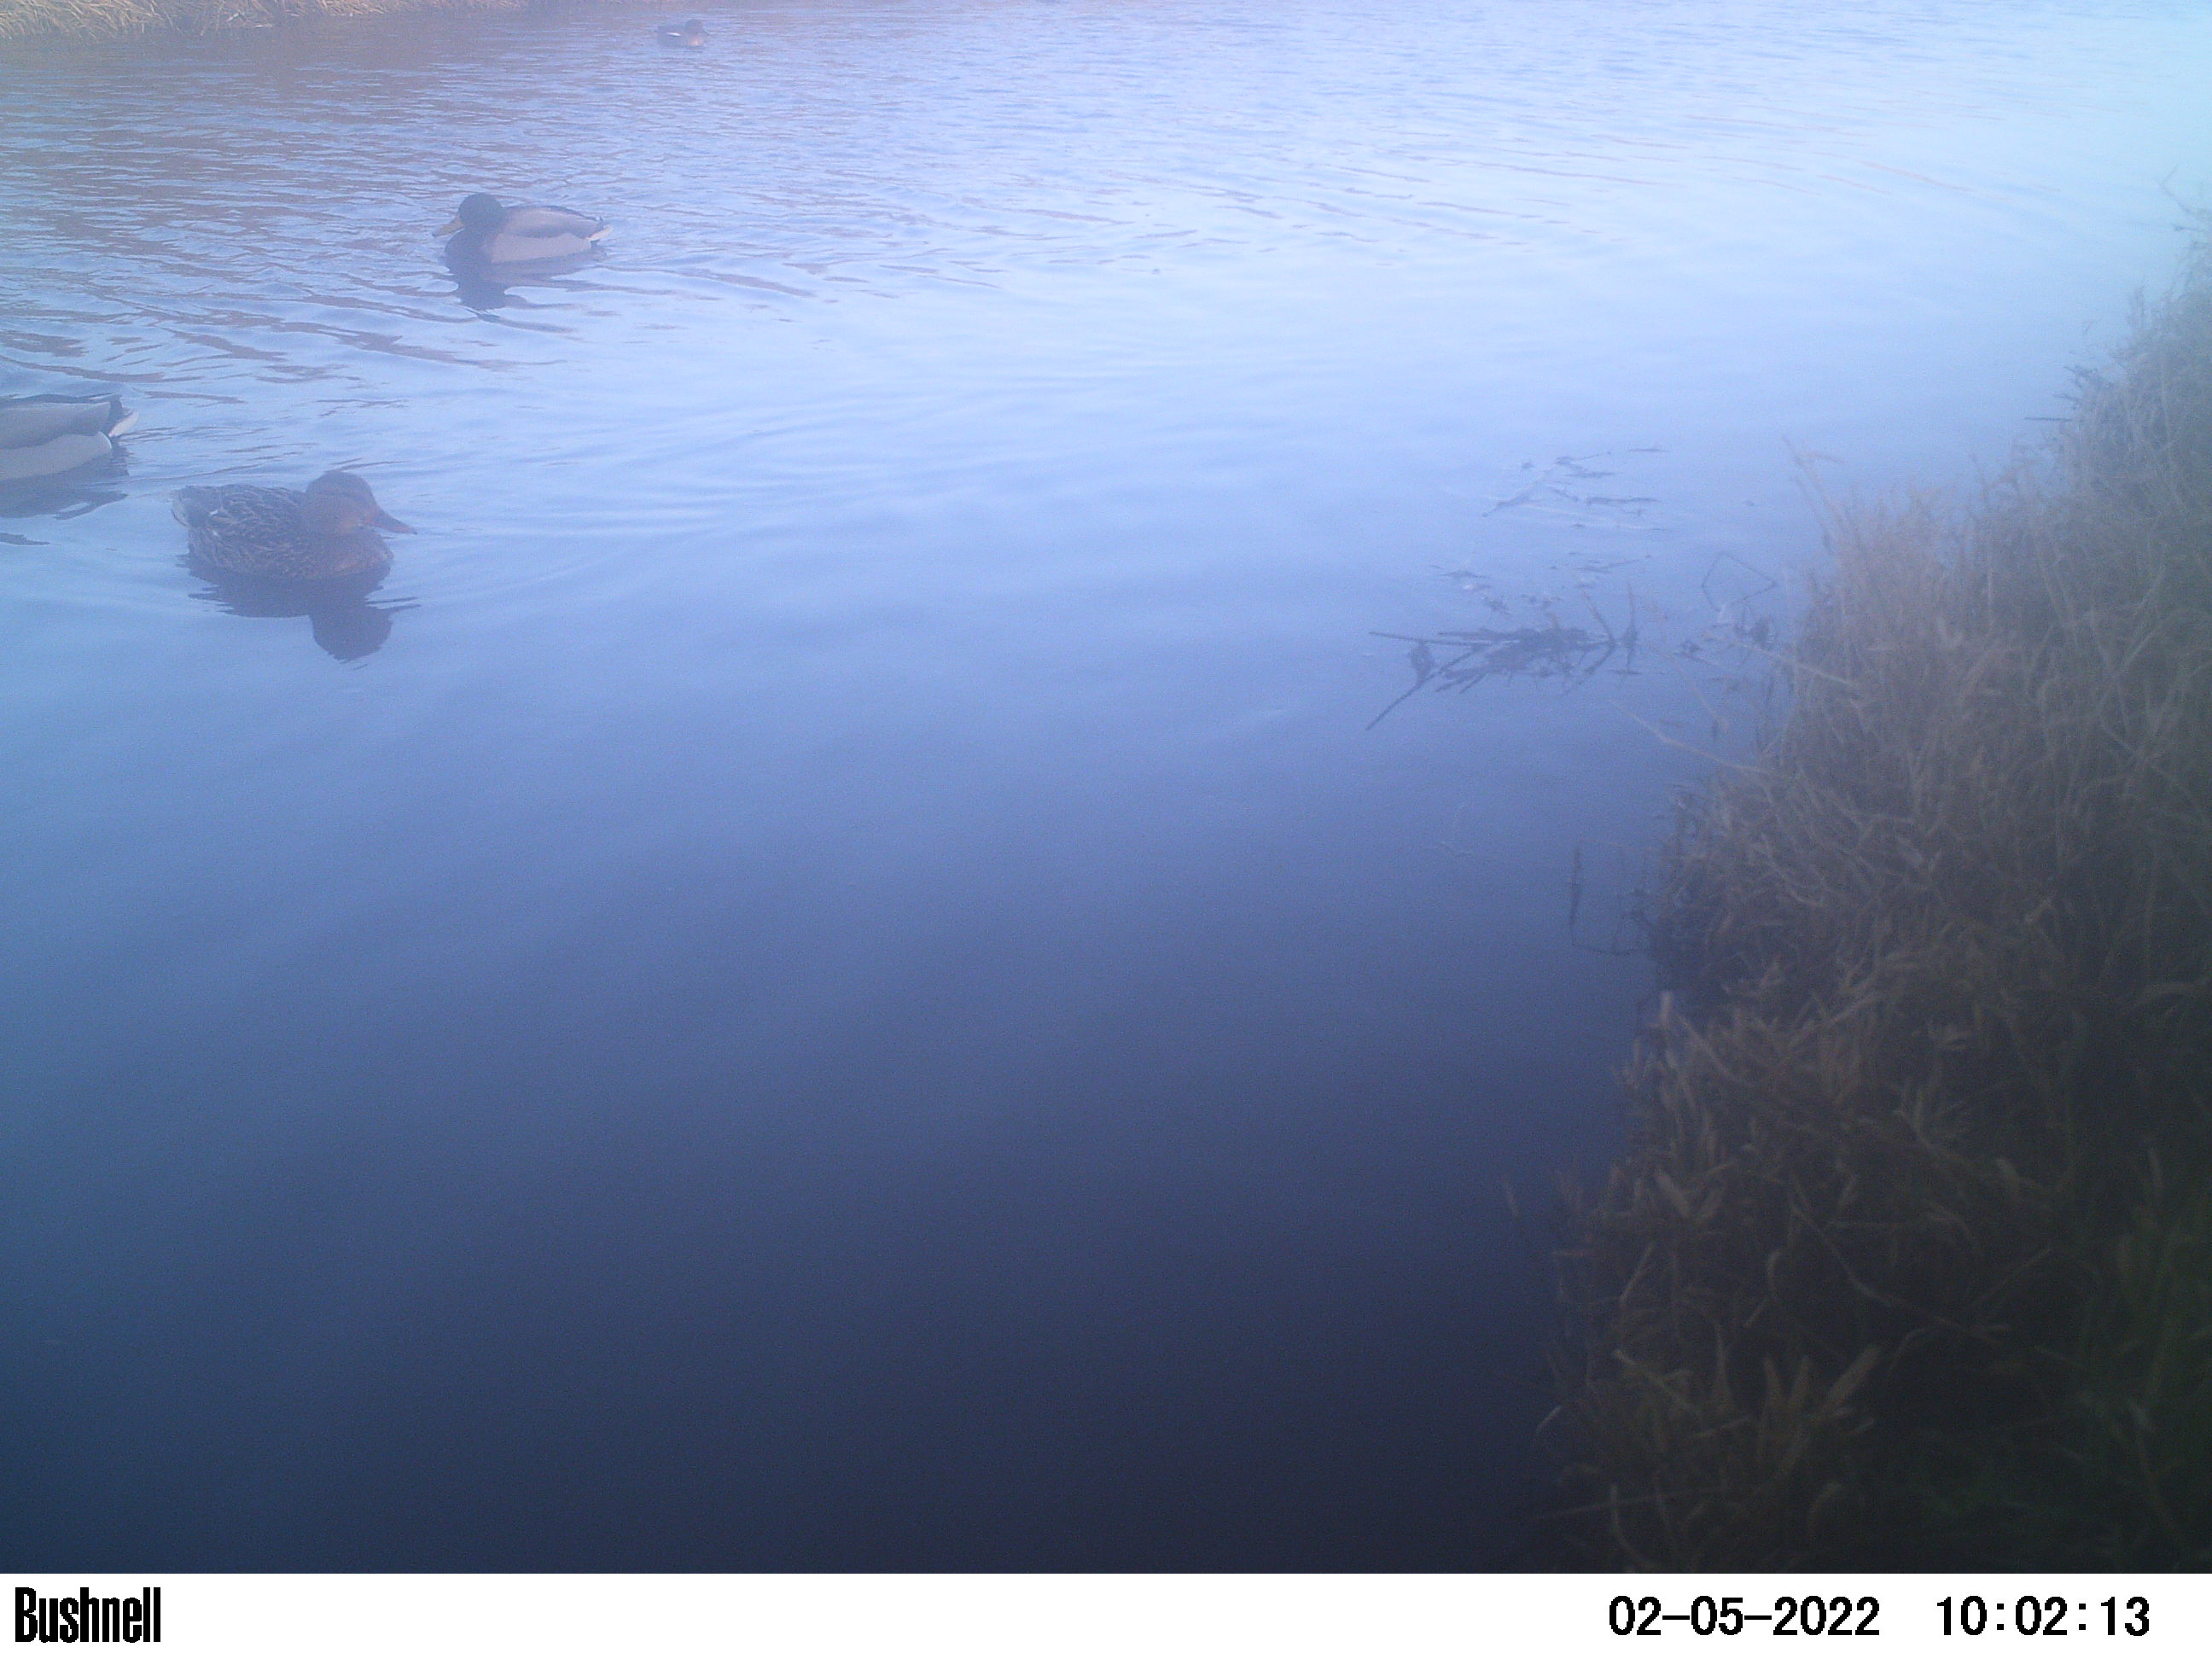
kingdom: Animalia
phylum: Chordata
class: Aves
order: Anseriformes
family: Anatidae
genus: Anas
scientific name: Anas
